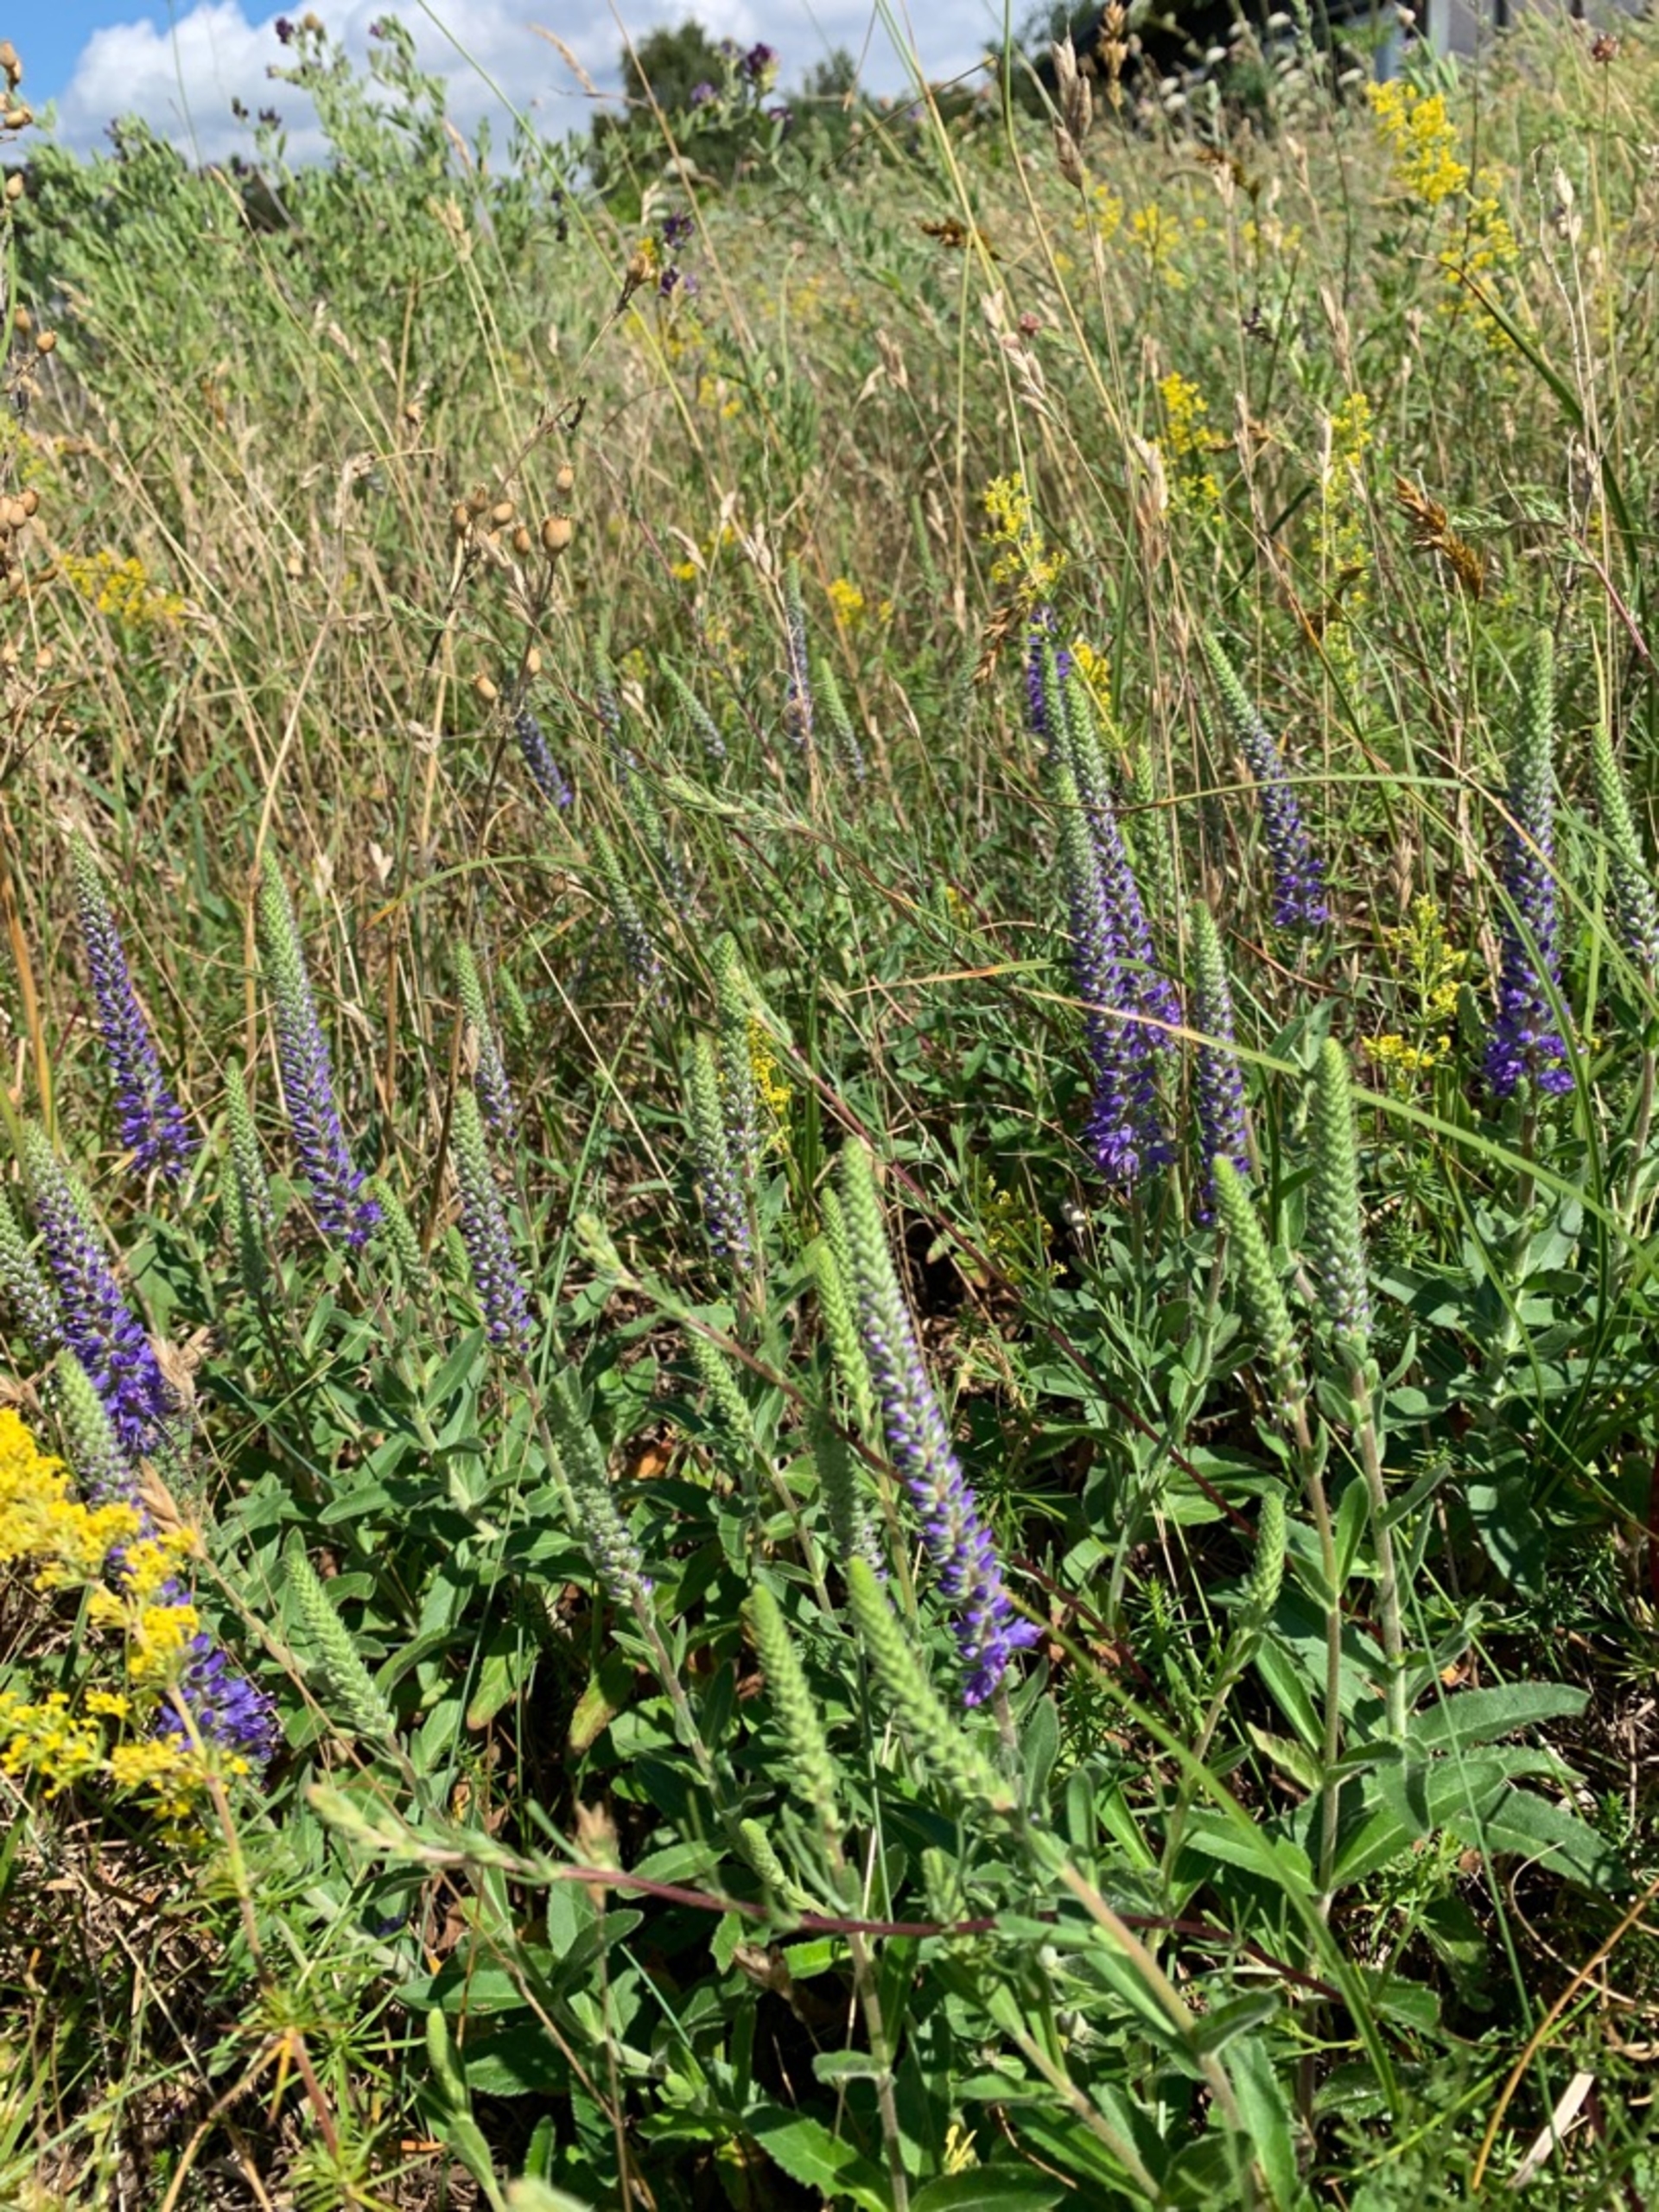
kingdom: Plantae
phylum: Tracheophyta
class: Magnoliopsida
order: Lamiales
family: Plantaginaceae
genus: Veronica
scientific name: Veronica spicata
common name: Aks-ærenpris
